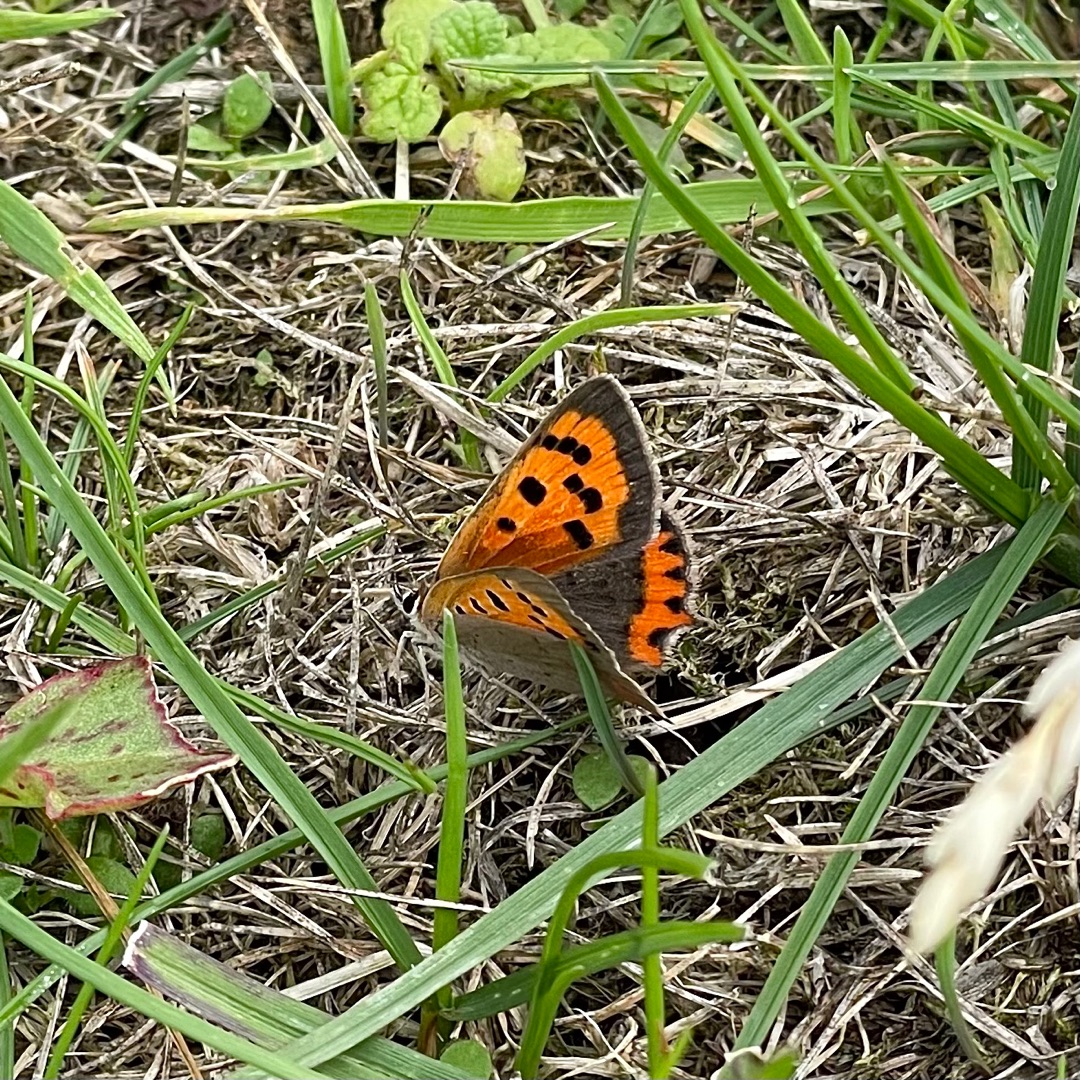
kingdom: Animalia
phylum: Arthropoda
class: Insecta
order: Lepidoptera
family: Lycaenidae
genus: Lycaena
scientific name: Lycaena phlaeas
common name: Lille ildfugl
